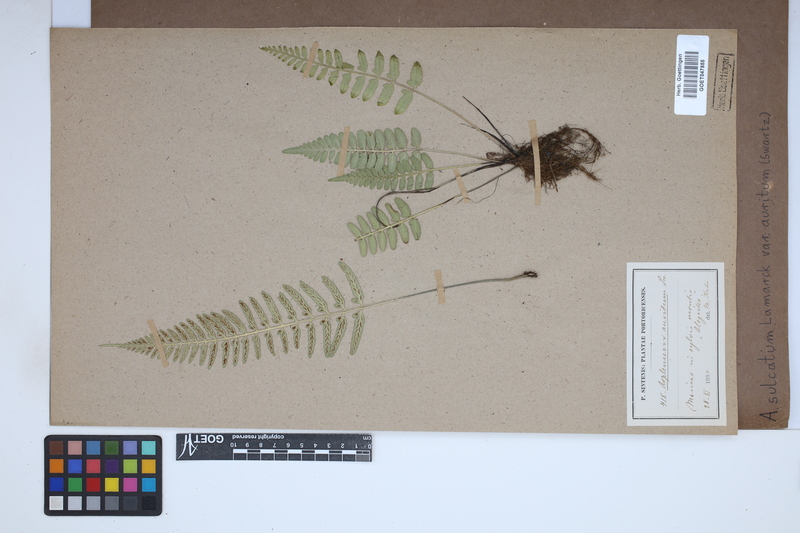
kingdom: Plantae
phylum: Tracheophyta
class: Polypodiopsida
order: Polypodiales
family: Aspleniaceae
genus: Asplenium
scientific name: Asplenium auritum
